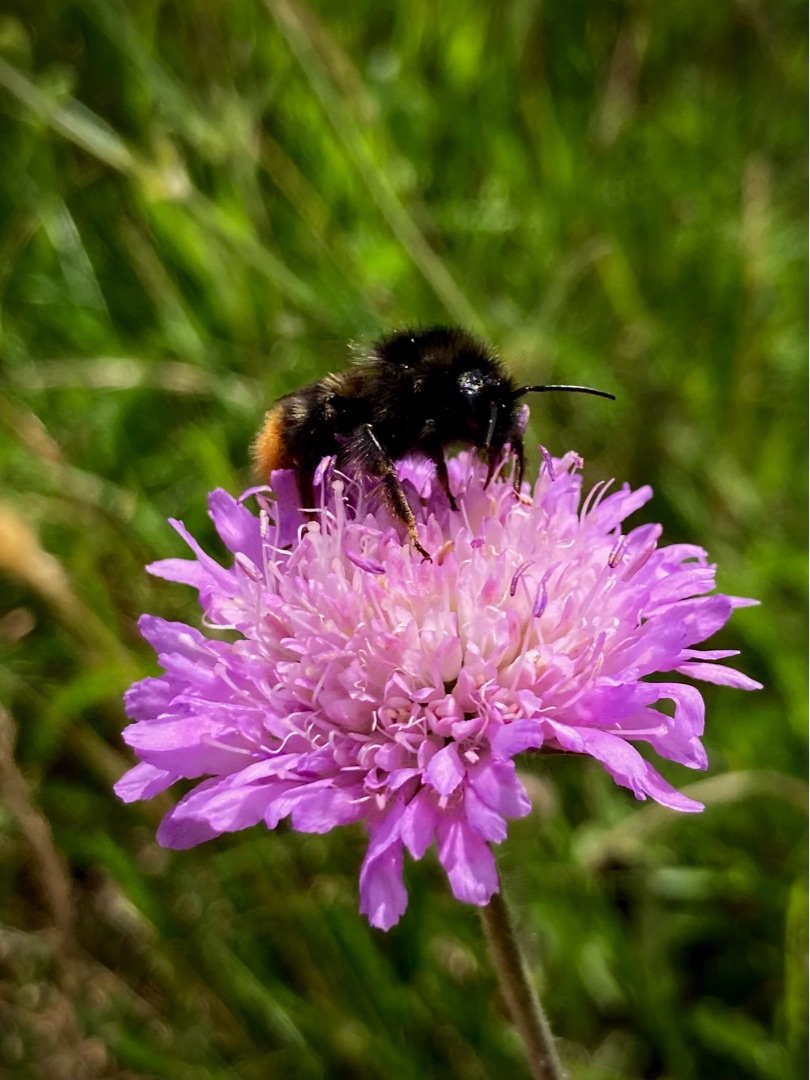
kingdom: Plantae
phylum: Tracheophyta
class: Magnoliopsida
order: Dipsacales
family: Caprifoliaceae
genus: Knautia
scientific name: Knautia arvensis
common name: Blåhat
